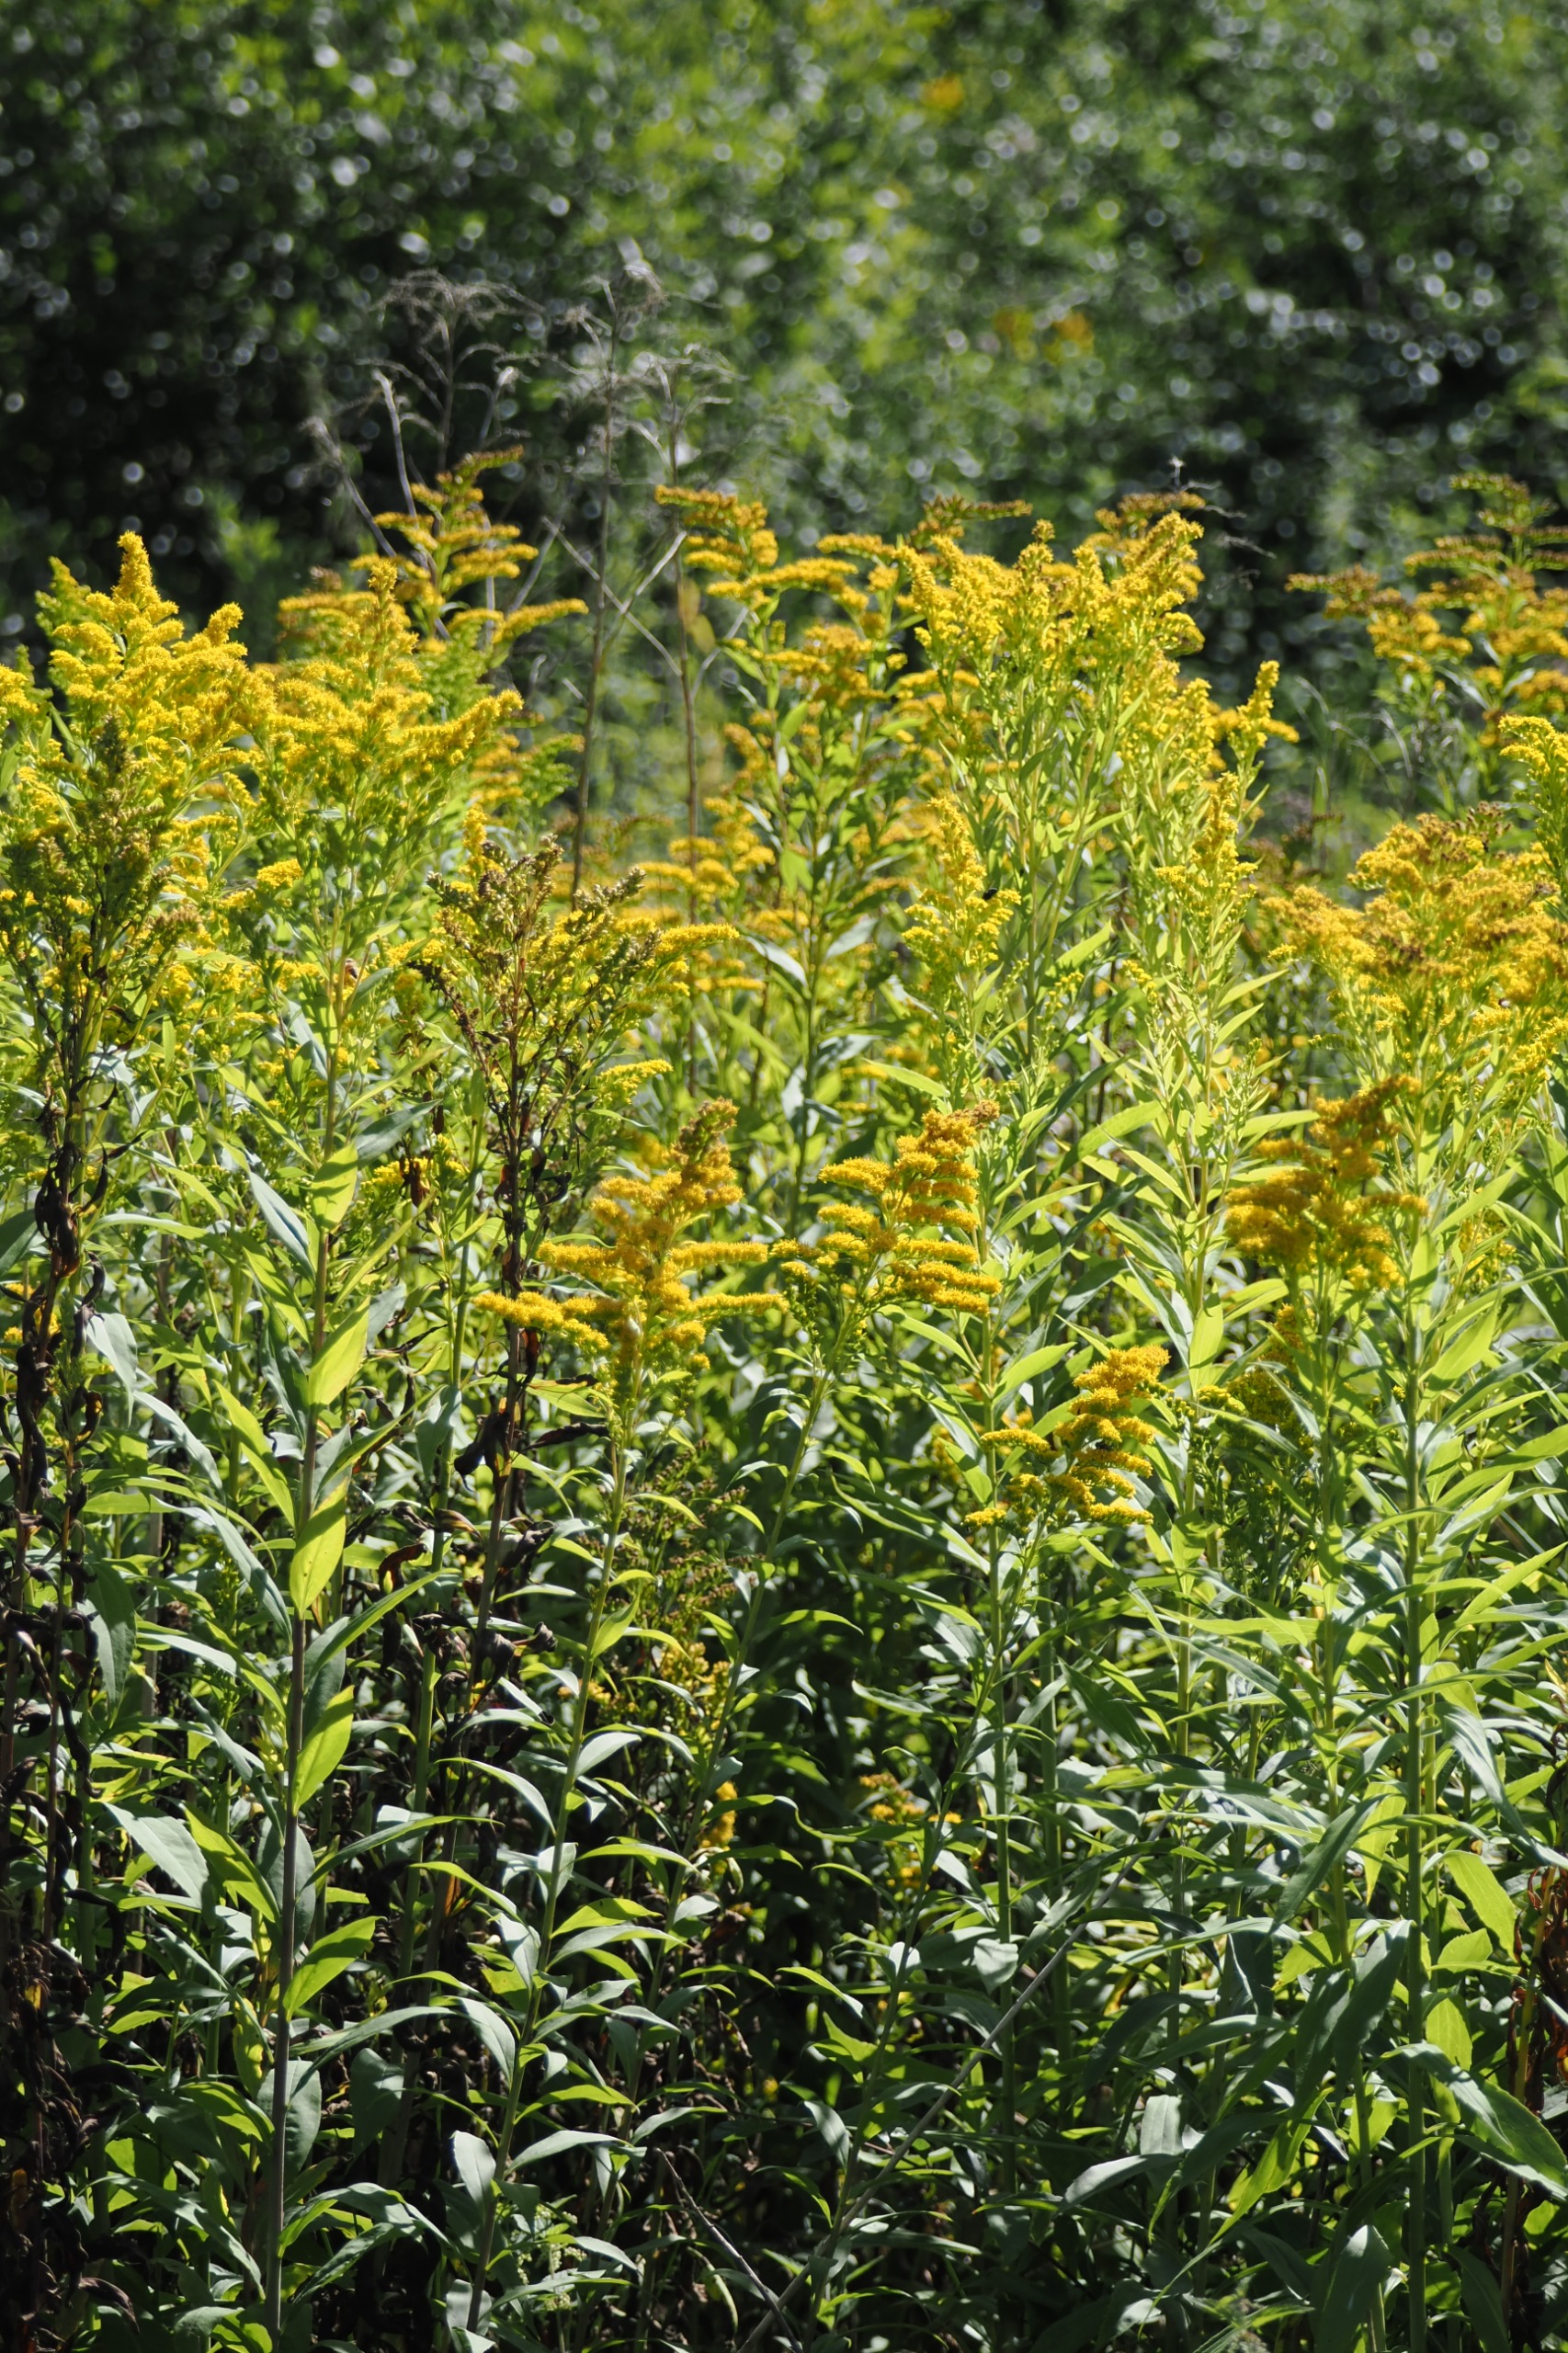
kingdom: Plantae
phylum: Tracheophyta
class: Magnoliopsida
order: Asterales
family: Asteraceae
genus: Solidago
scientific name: Solidago
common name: Gyldenrisslægten
